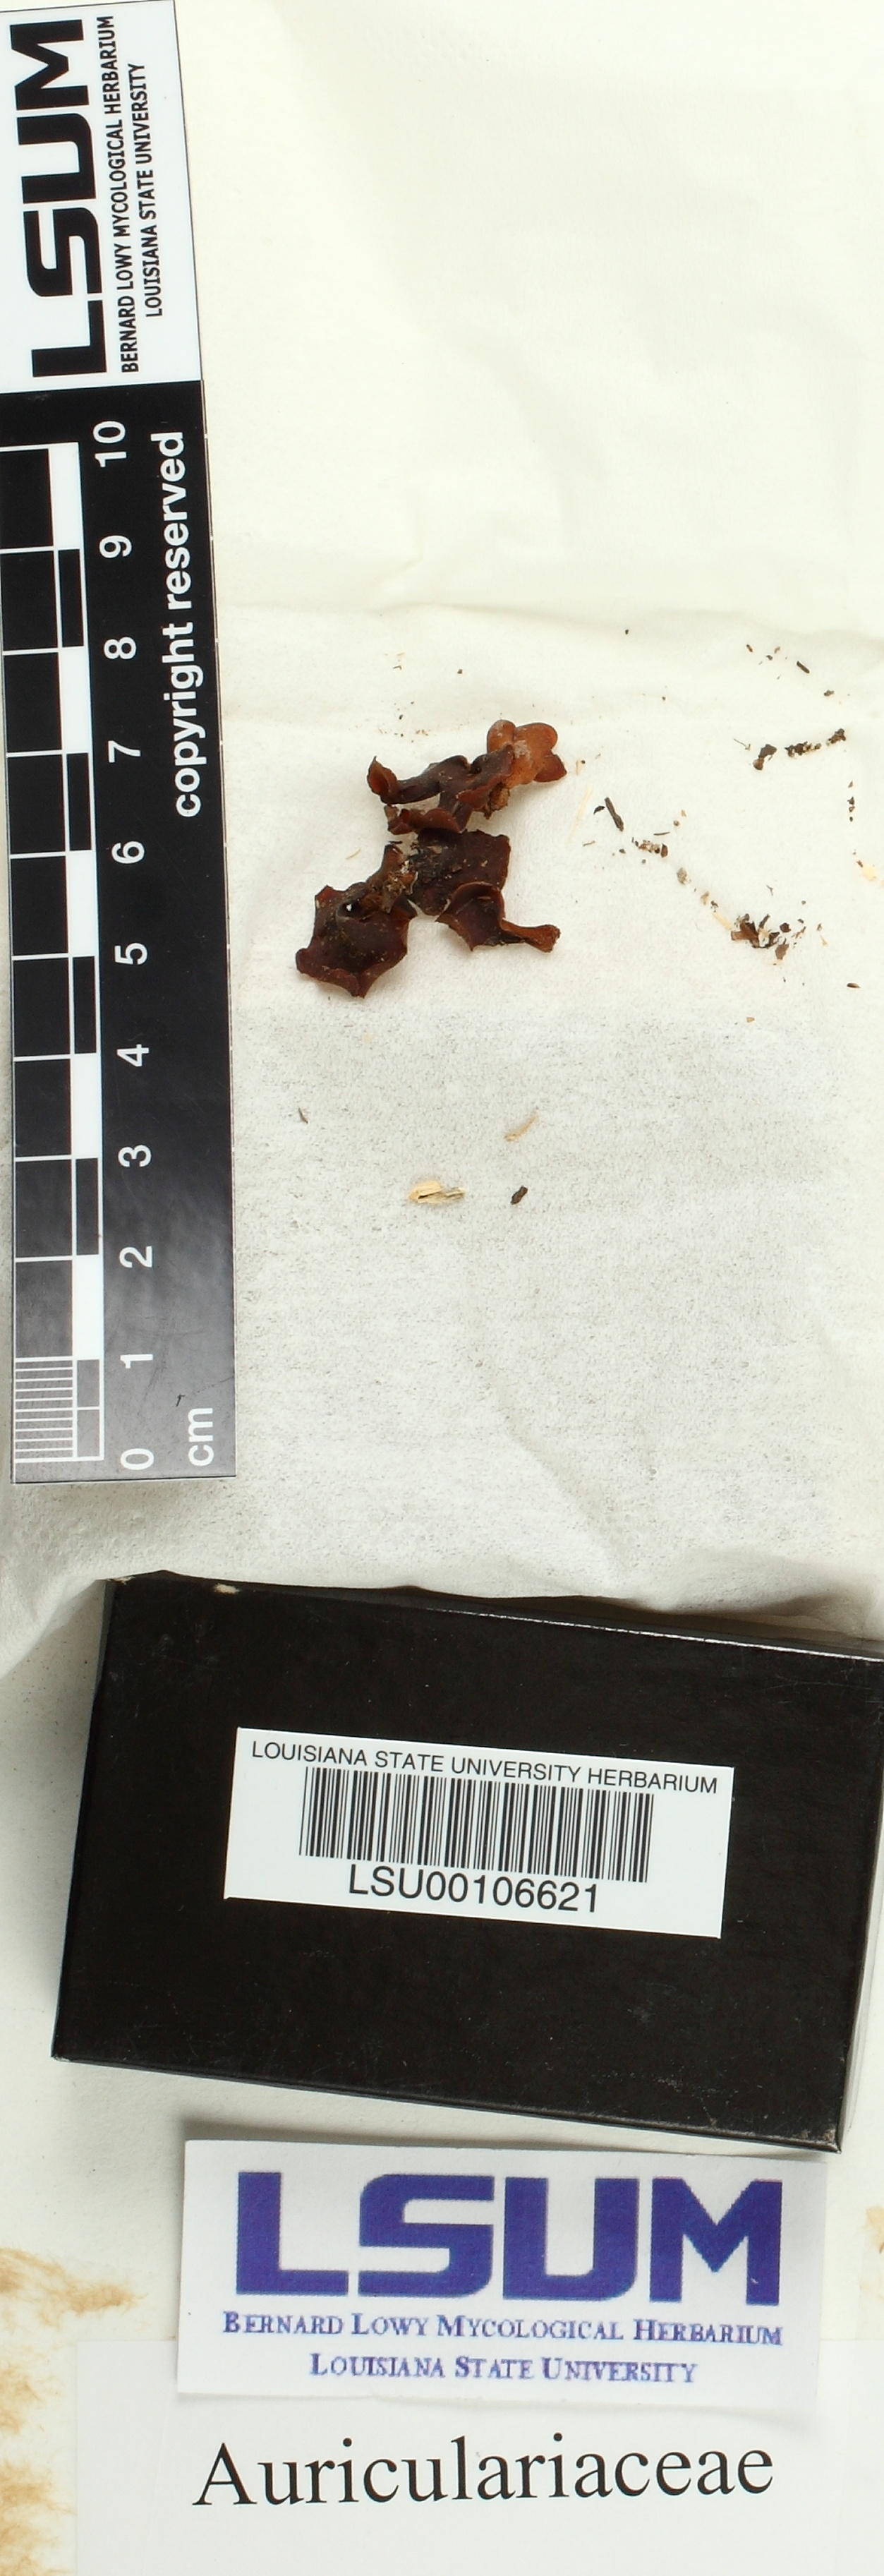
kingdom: Fungi
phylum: Basidiomycota
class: Agaricomycetes
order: Auriculariales
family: Auriculariaceae
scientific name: Auriculariaceae
